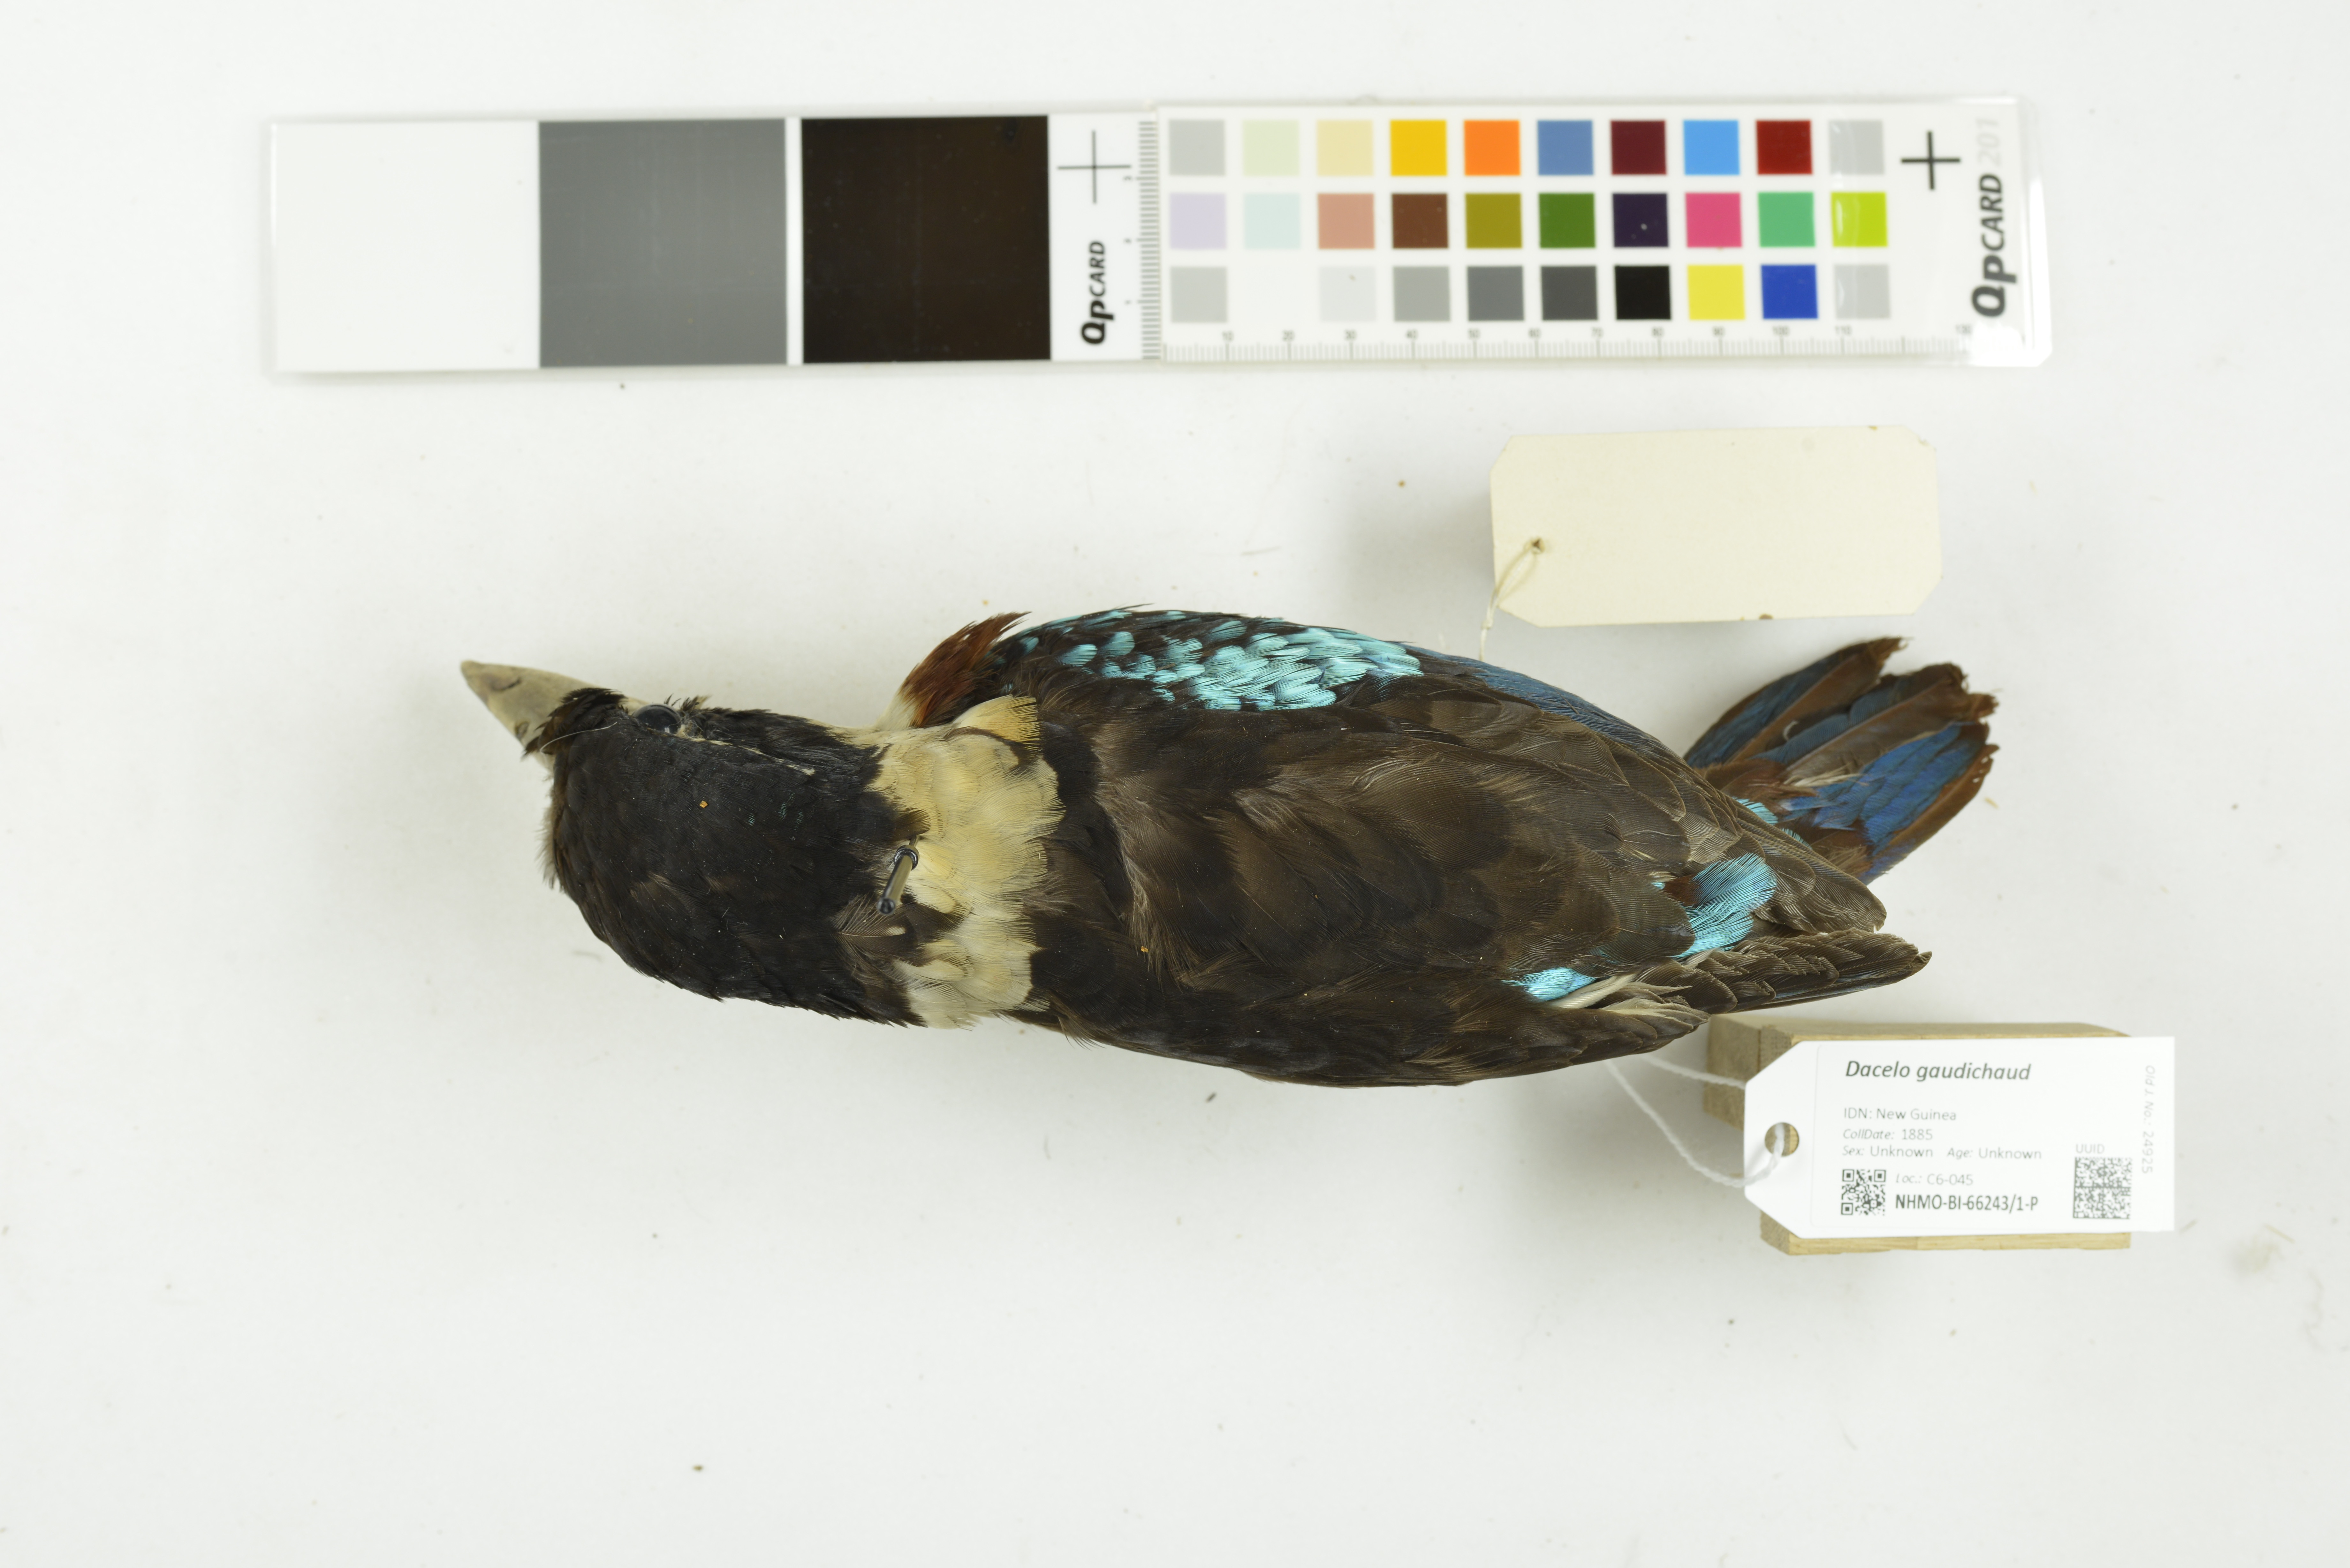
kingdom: Animalia
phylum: Chordata
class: Aves
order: Coraciiformes
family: Alcedinidae
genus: Dacelo
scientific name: Dacelo gaudichaud
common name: Rufous-bellied kookaburra
